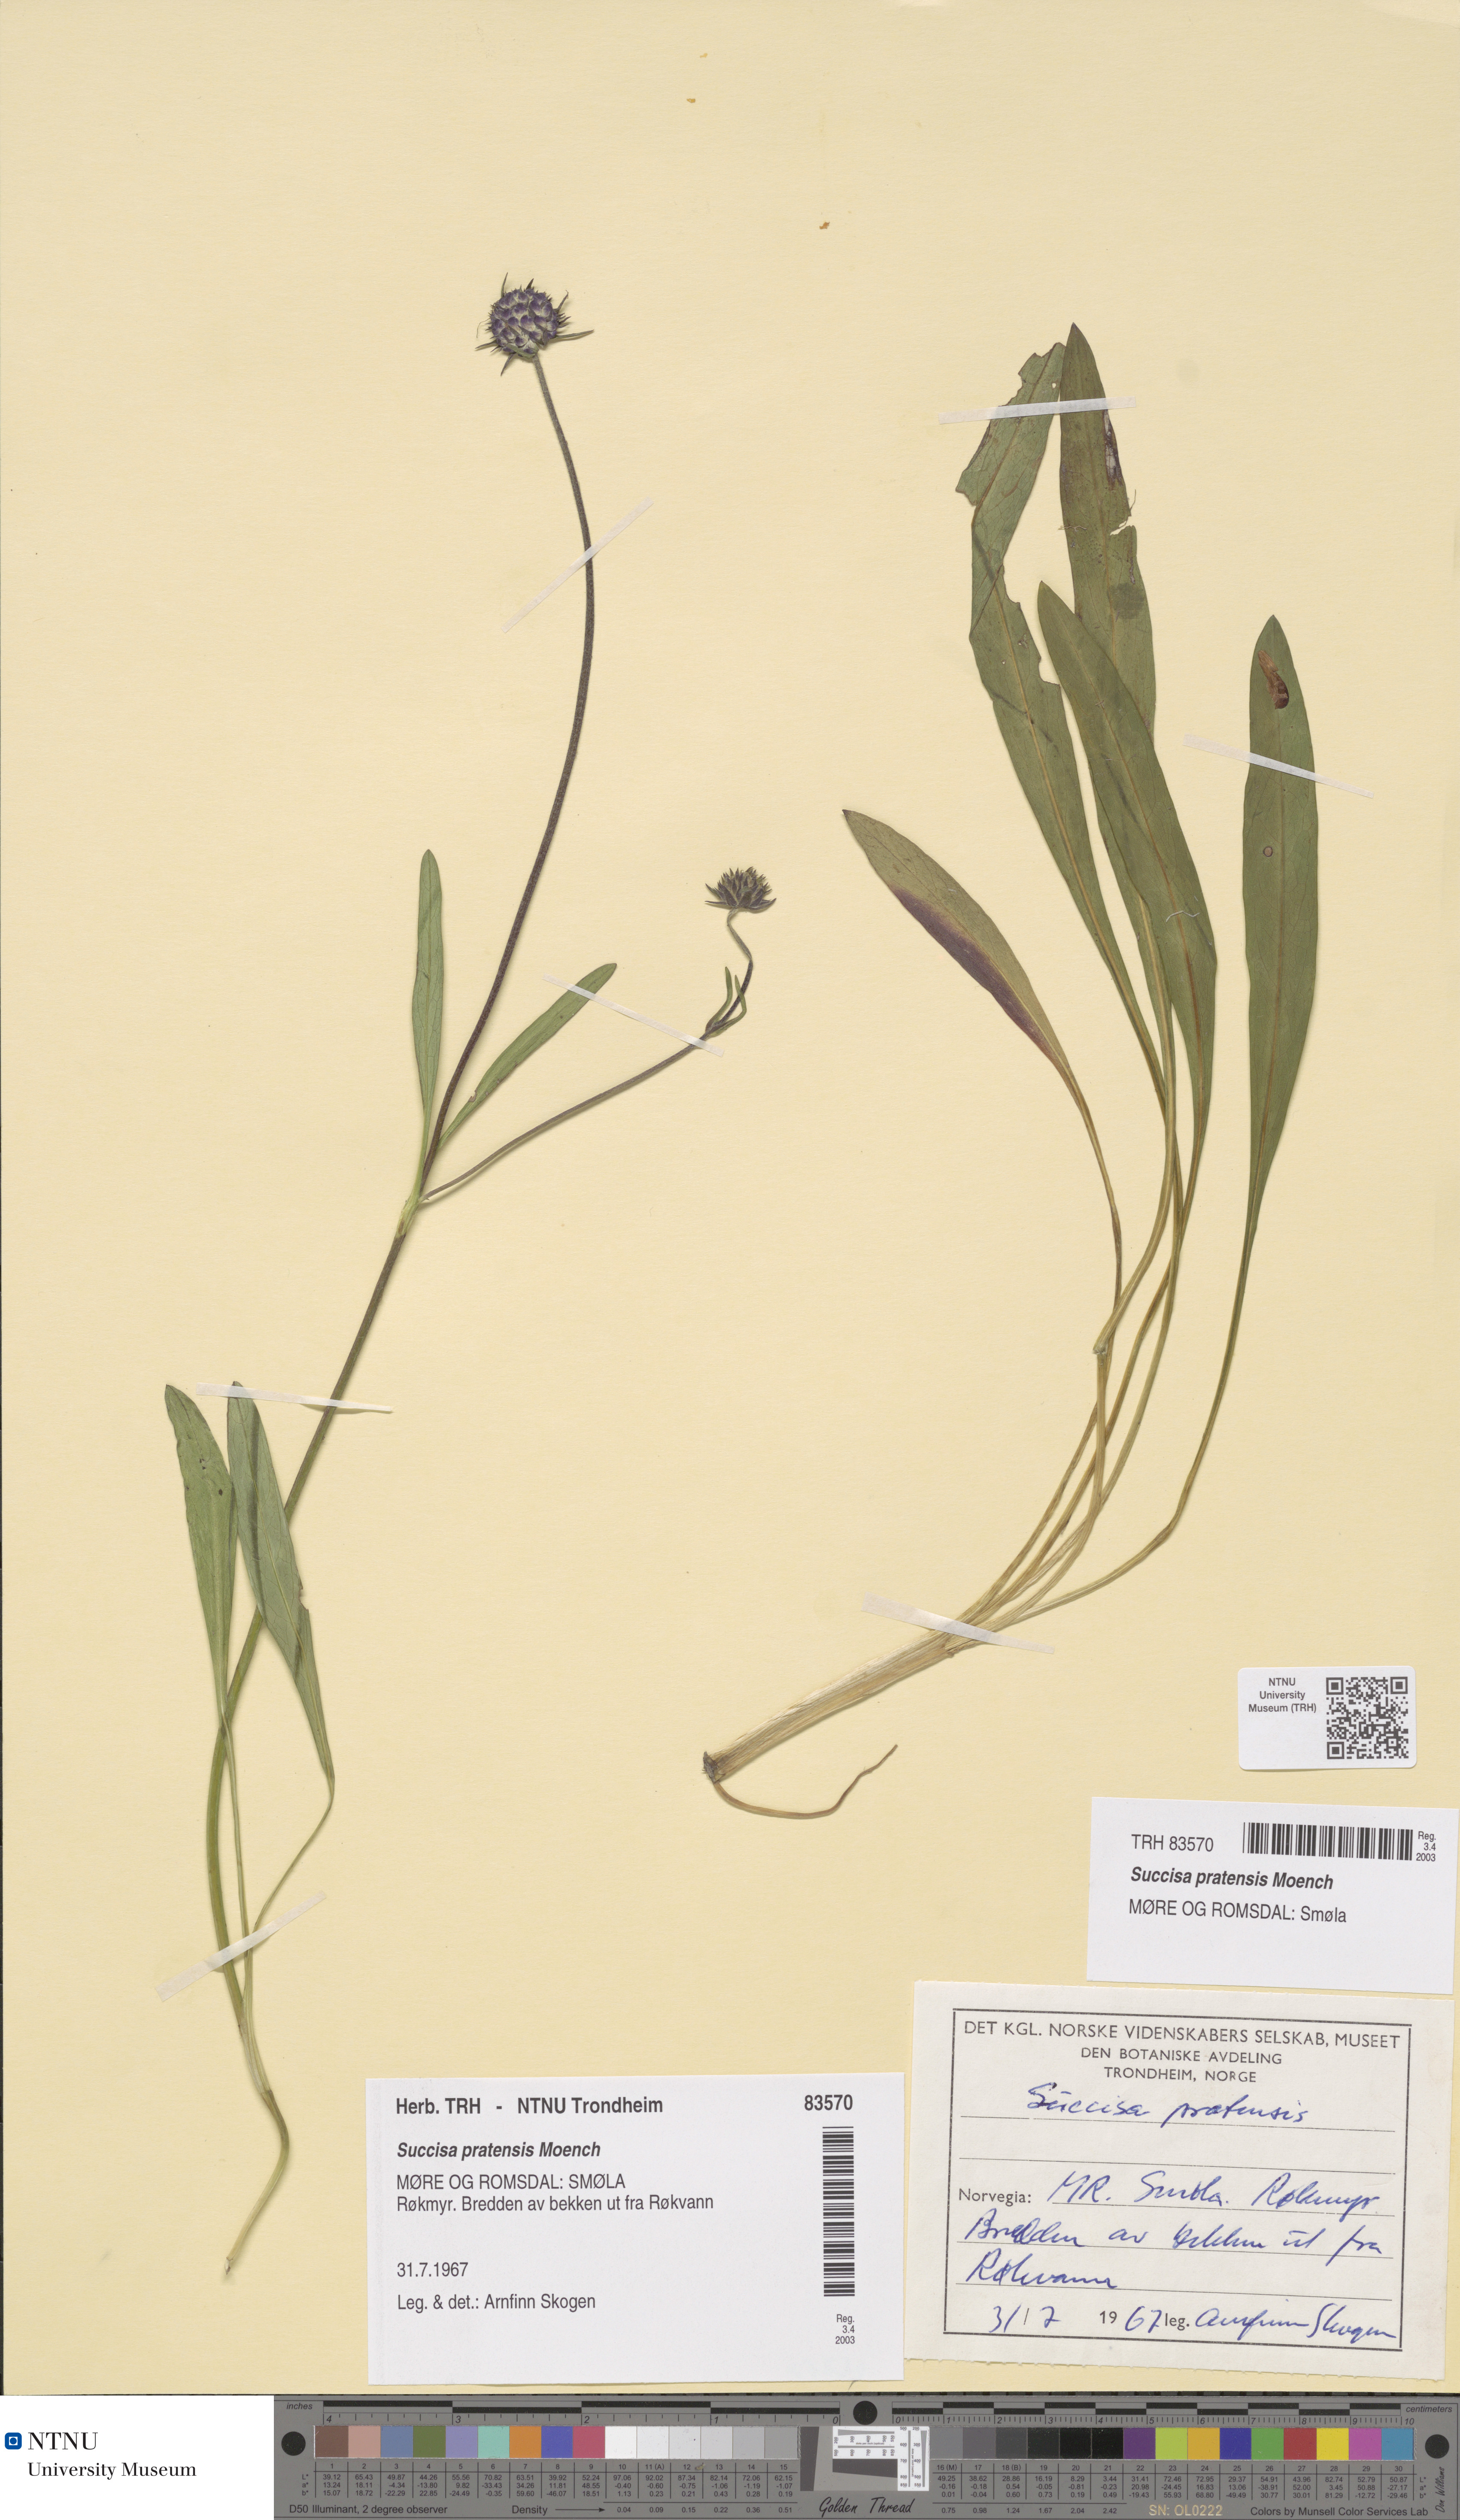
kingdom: Plantae
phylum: Tracheophyta
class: Magnoliopsida
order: Dipsacales
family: Caprifoliaceae
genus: Succisa
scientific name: Succisa pratensis
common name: Devil's-bit
